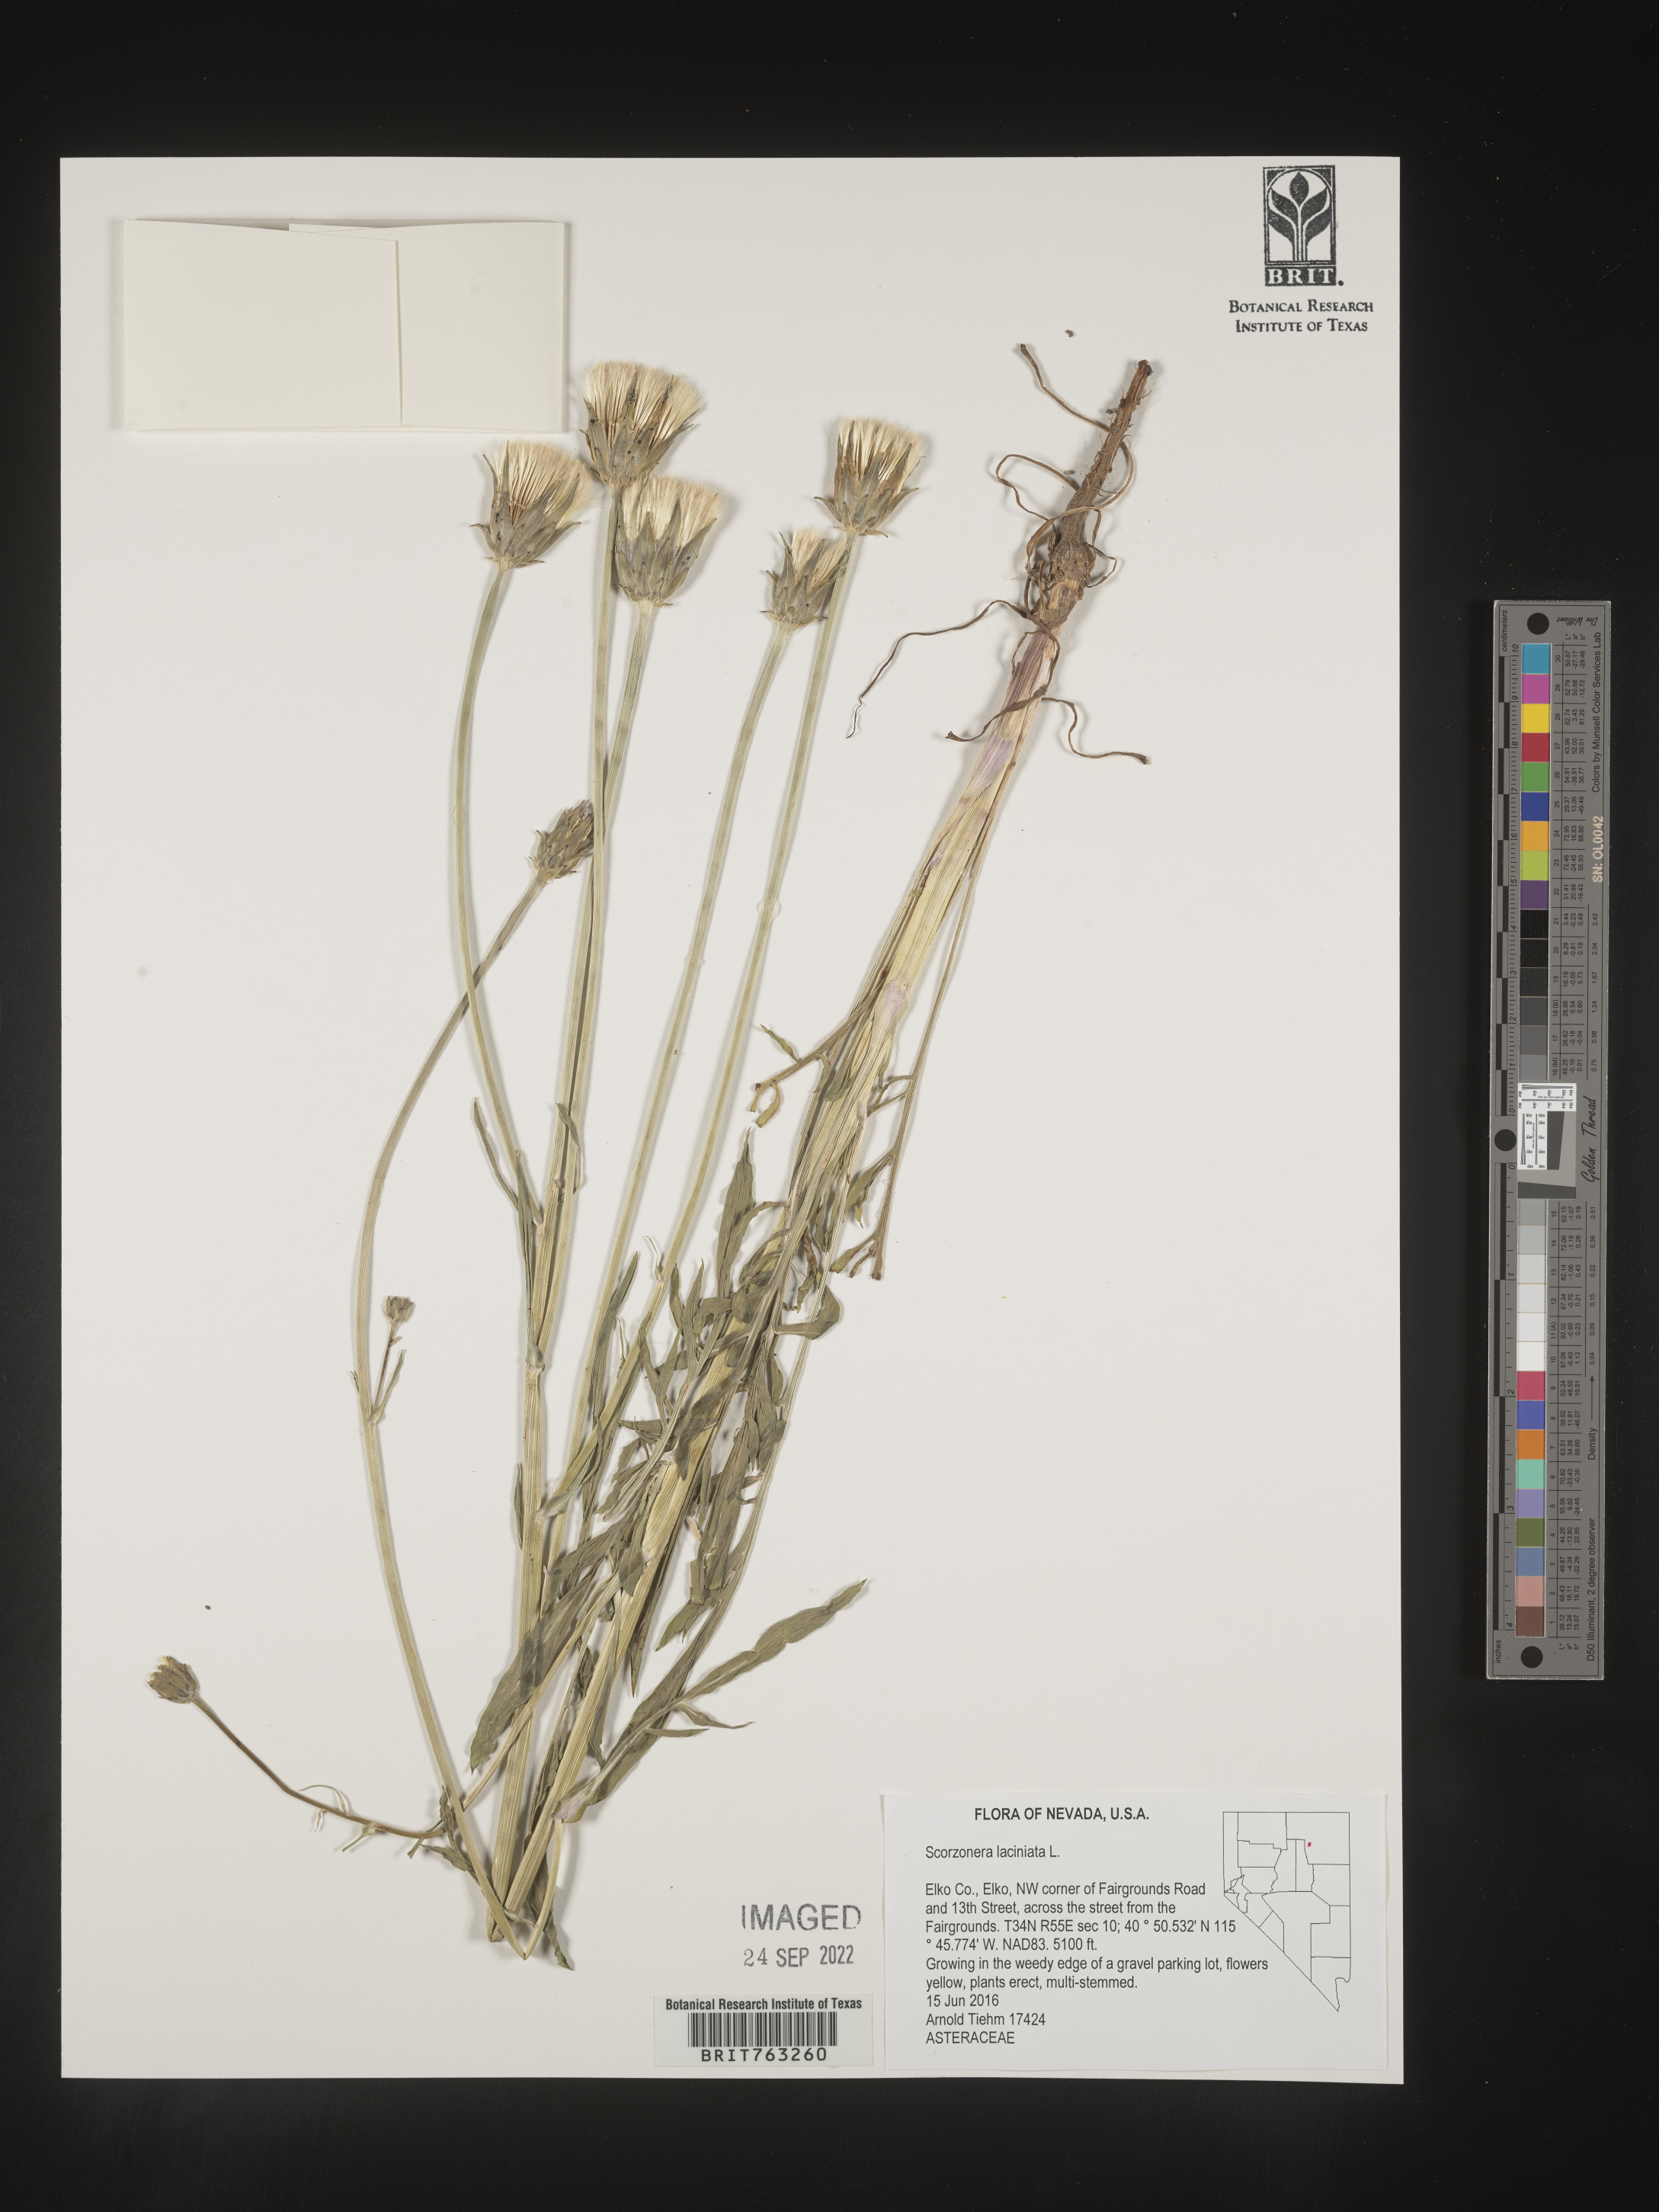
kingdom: Plantae
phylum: Tracheophyta
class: Magnoliopsida
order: Asterales
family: Asteraceae
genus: Scorzonera
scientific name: Scorzonera laciniata
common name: Cutleaf vipergrass
